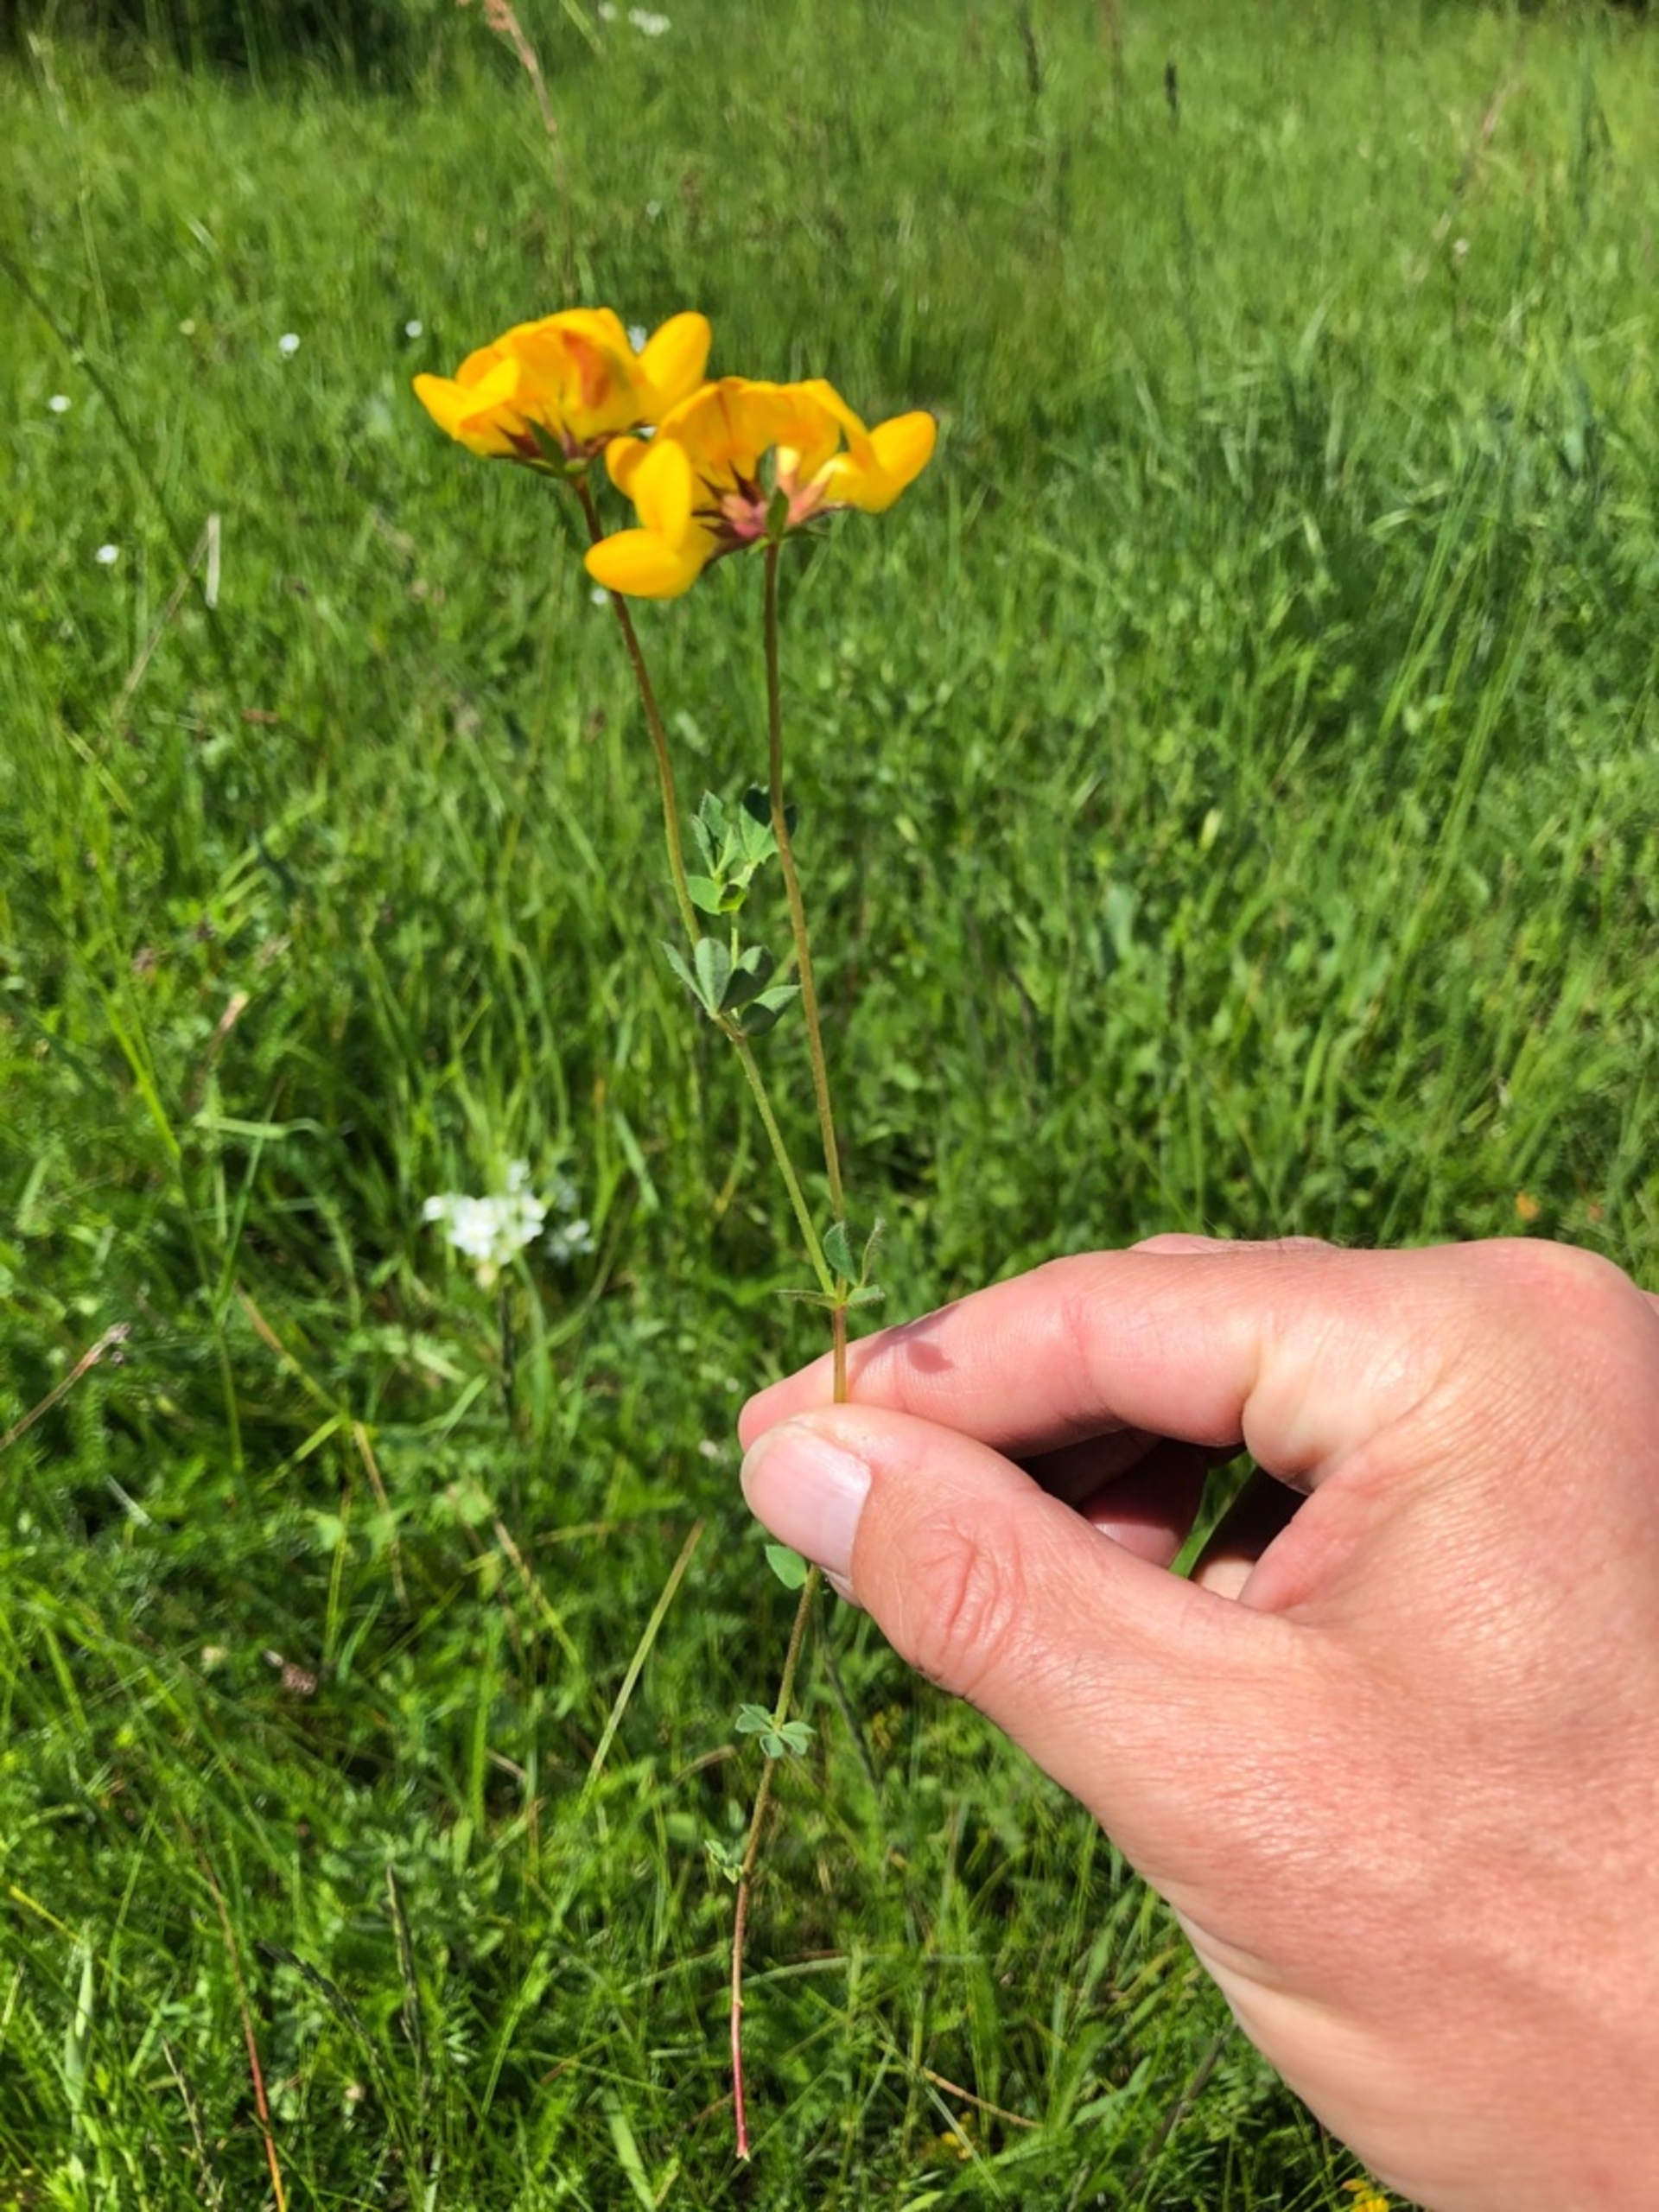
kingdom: Plantae
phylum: Tracheophyta
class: Magnoliopsida
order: Fabales
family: Fabaceae
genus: Lotus
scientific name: Lotus corniculatus
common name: Almindelig kællingetand
